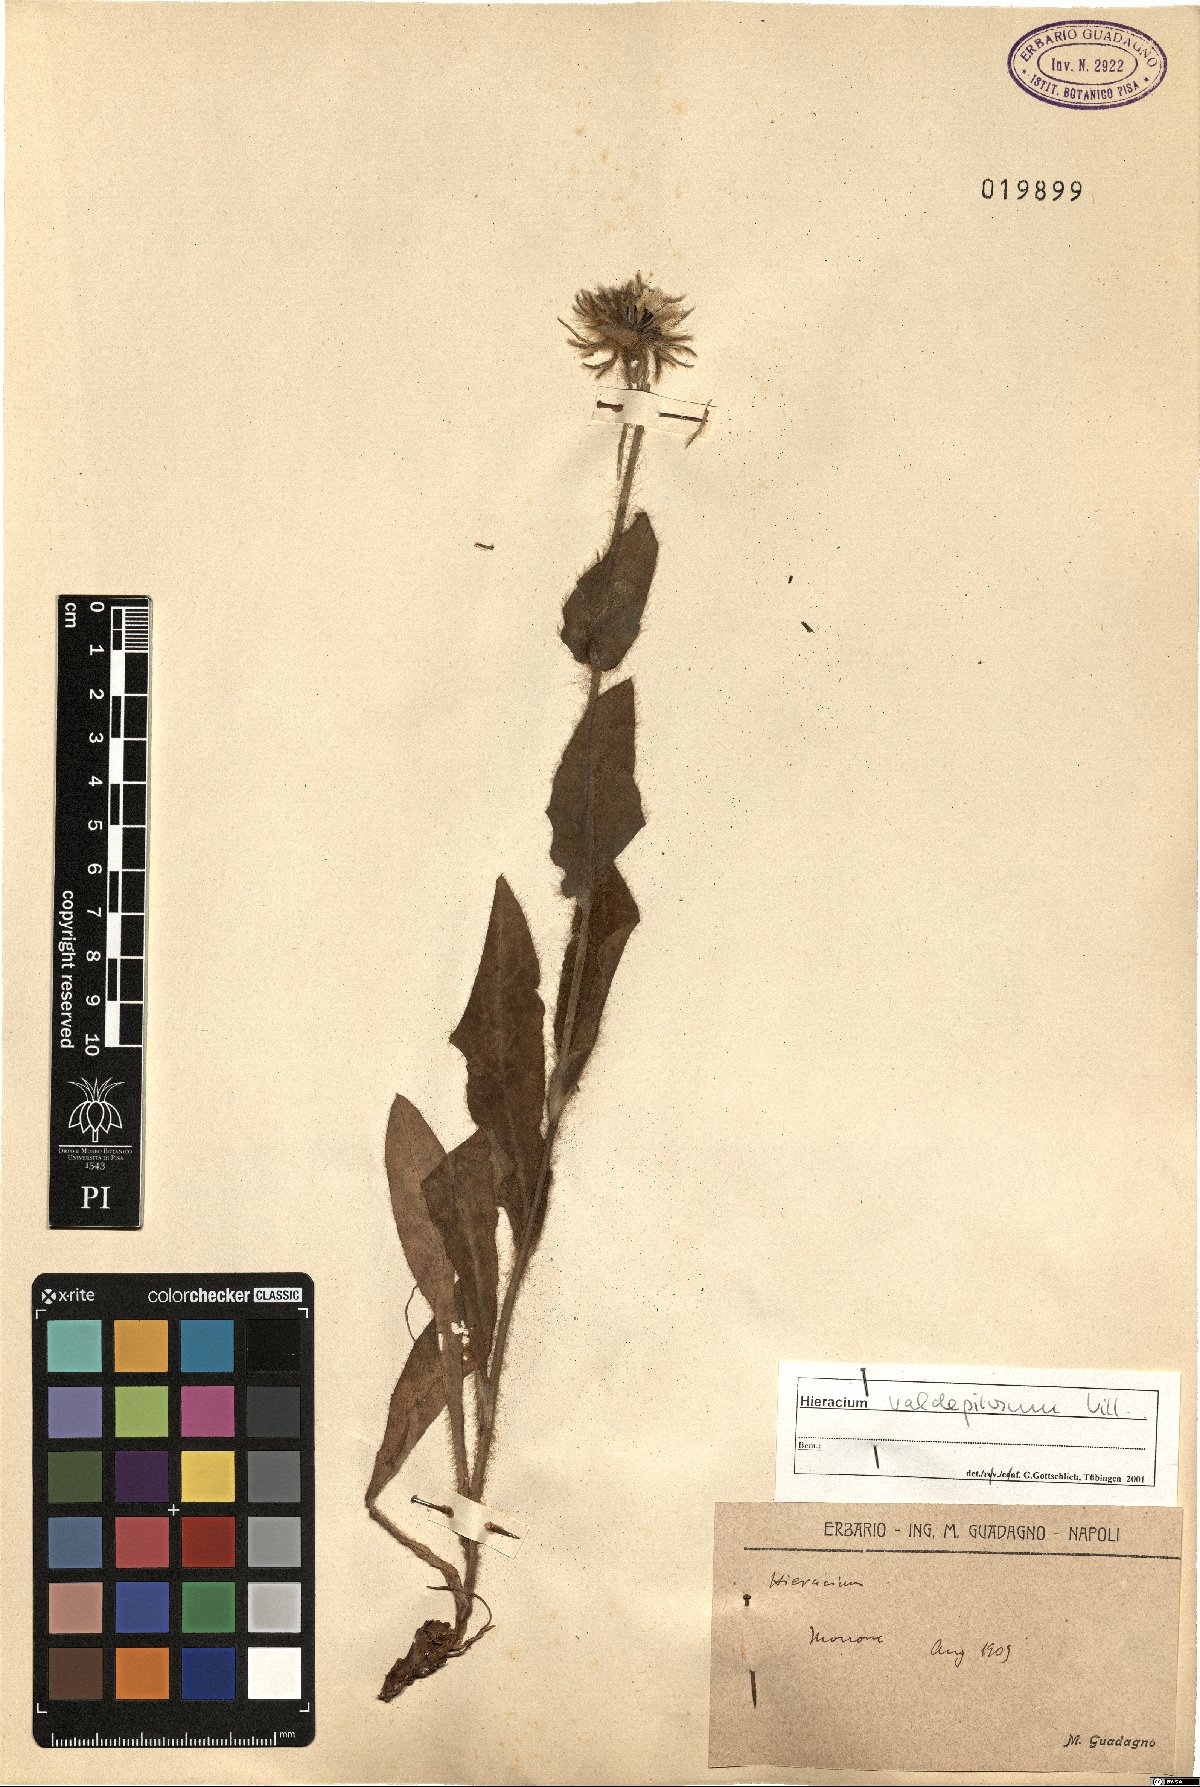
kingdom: Plantae
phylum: Tracheophyta
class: Magnoliopsida
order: Asterales
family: Asteraceae
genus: Hieracium
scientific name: Hieracium valdepilosum
